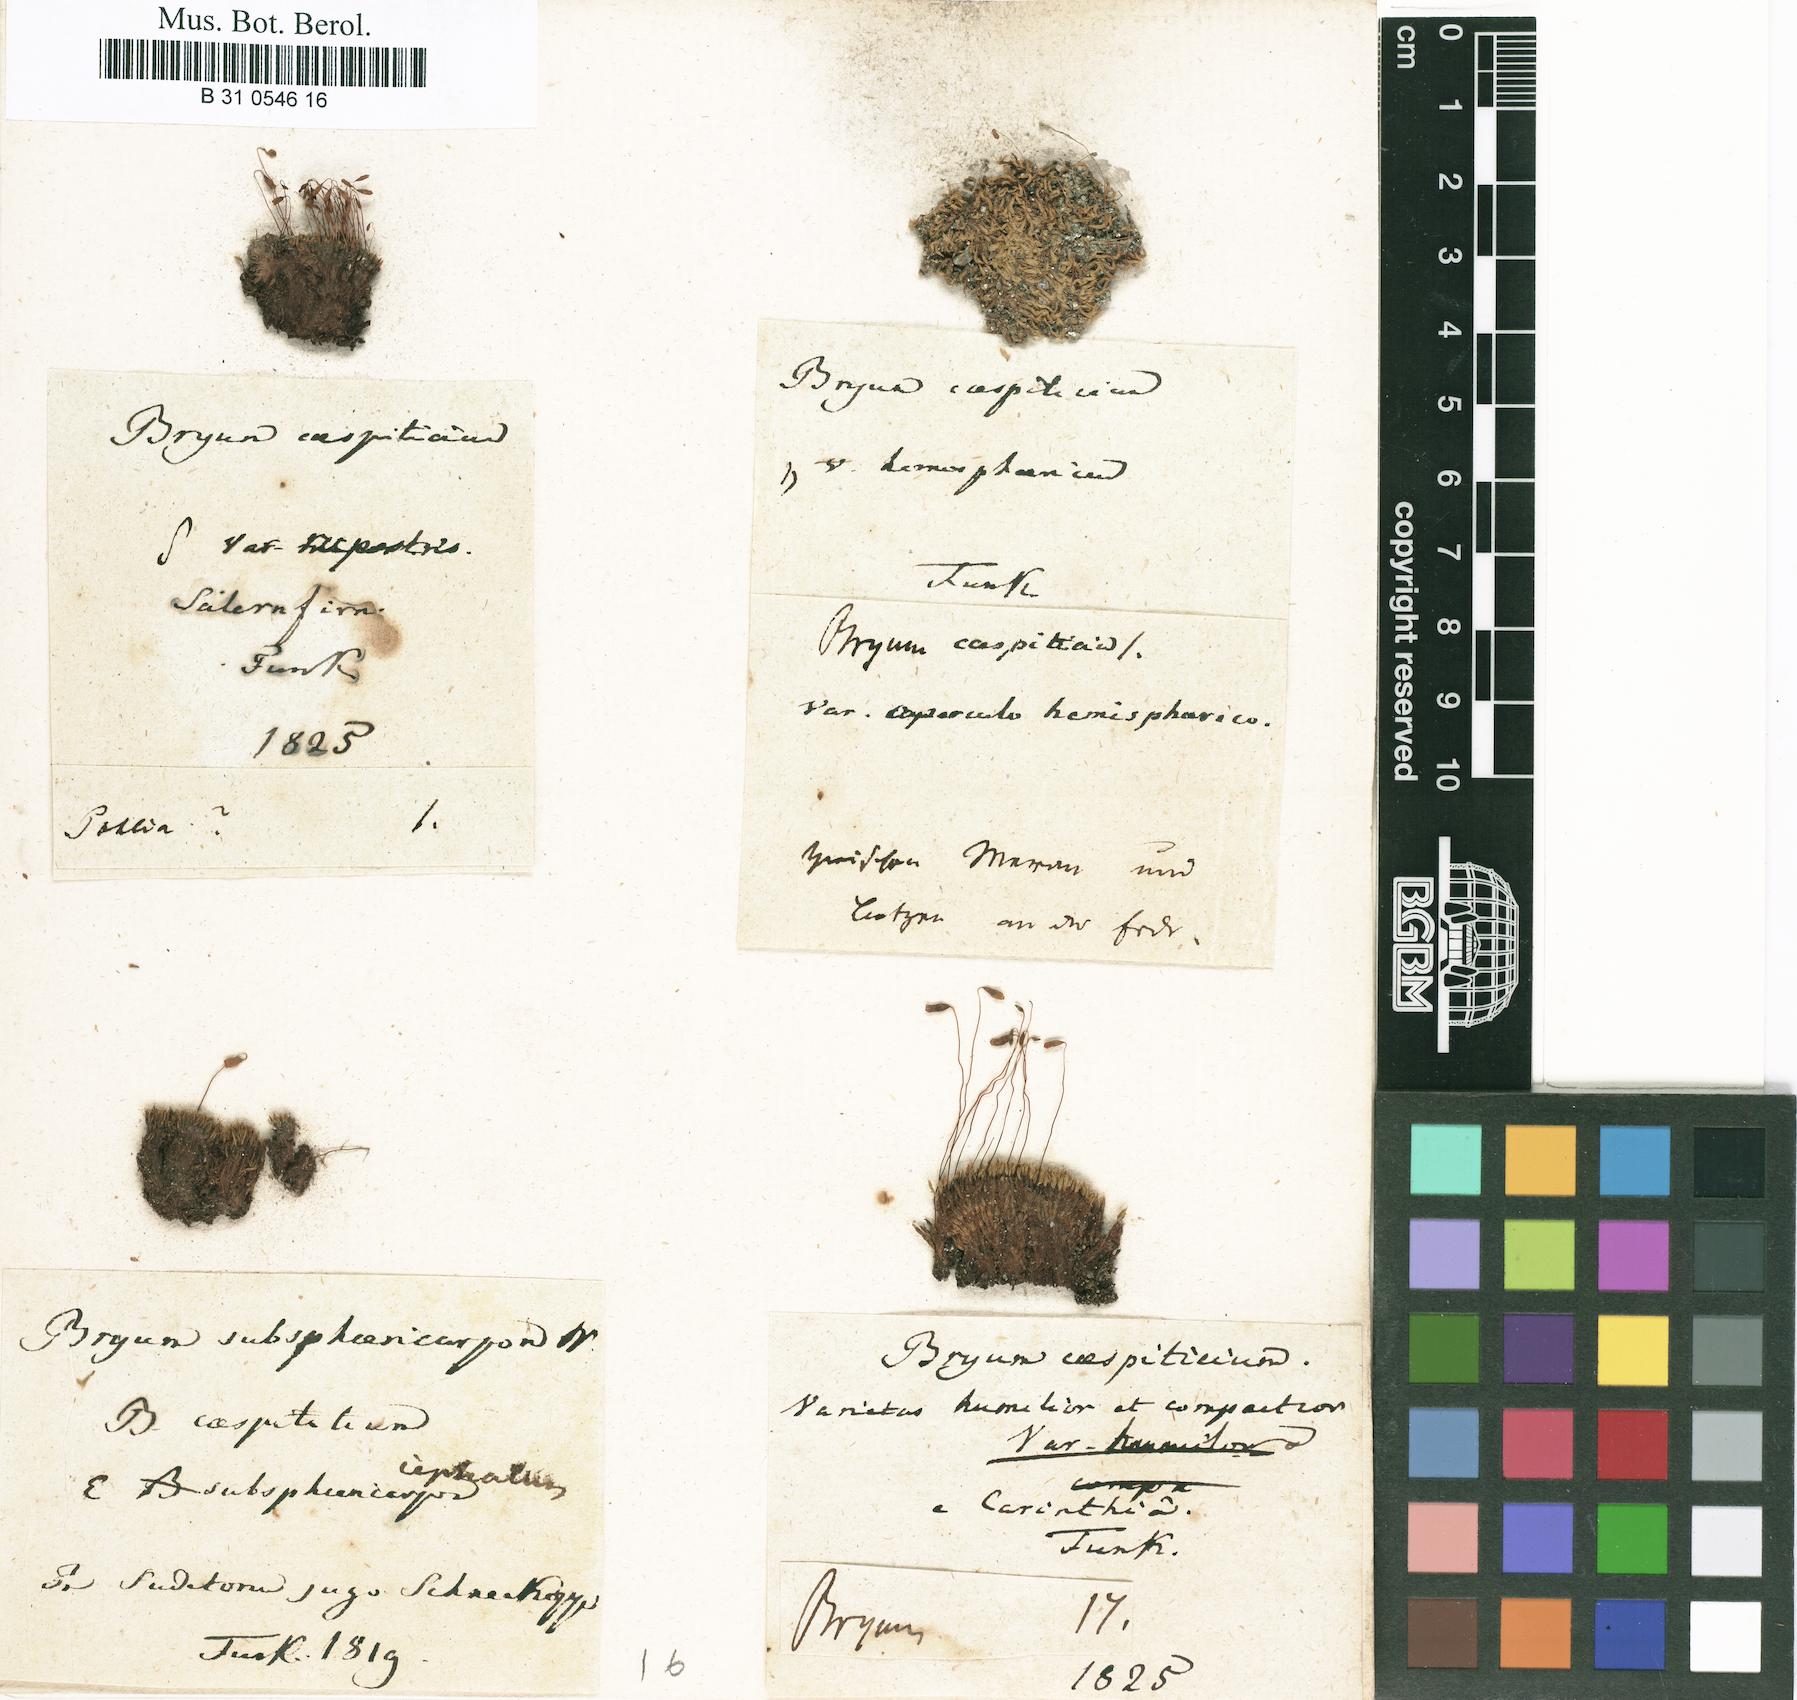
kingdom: Plantae
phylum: Bryophyta
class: Bryopsida
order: Bryales
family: Bryaceae
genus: Gemmabryum
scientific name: Gemmabryum caespiticium
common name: Handbell moss
